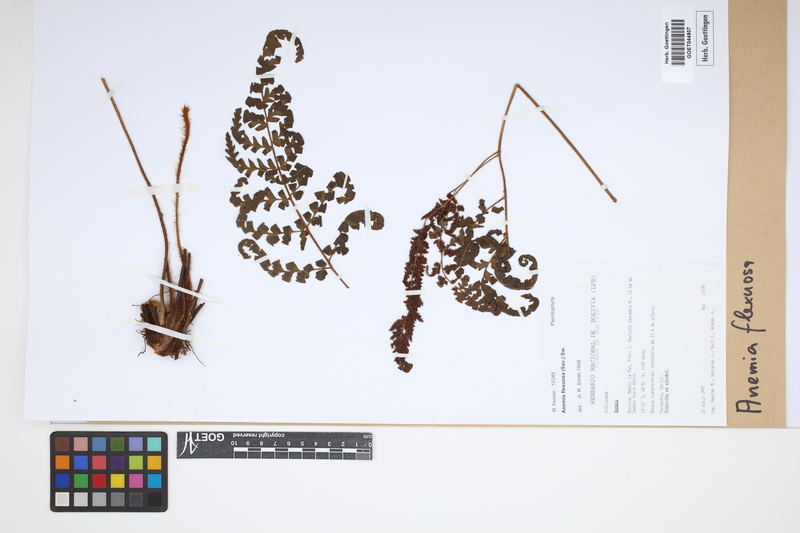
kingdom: Plantae
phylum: Tracheophyta
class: Polypodiopsida
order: Schizaeales
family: Anemiaceae
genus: Anemia
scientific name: Anemia flexuosa
